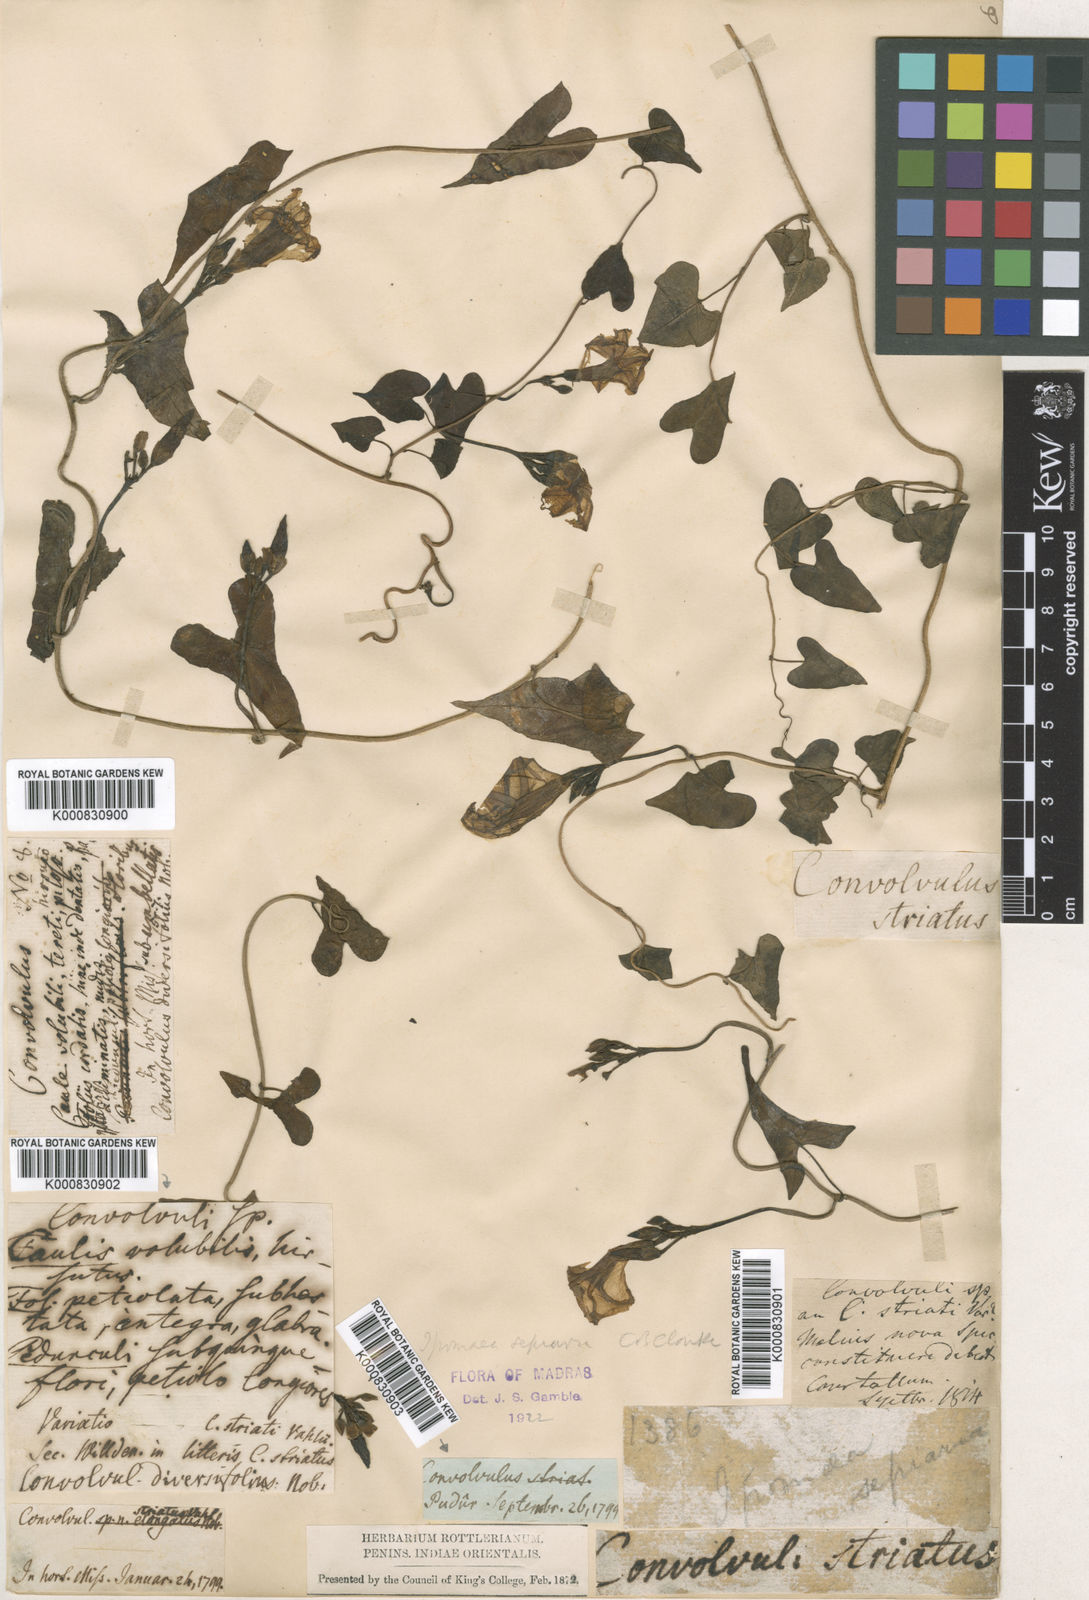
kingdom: Plantae
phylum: Tracheophyta
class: Magnoliopsida
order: Solanales
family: Convolvulaceae
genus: Ipomoea
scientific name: Ipomoea sagittifolia
